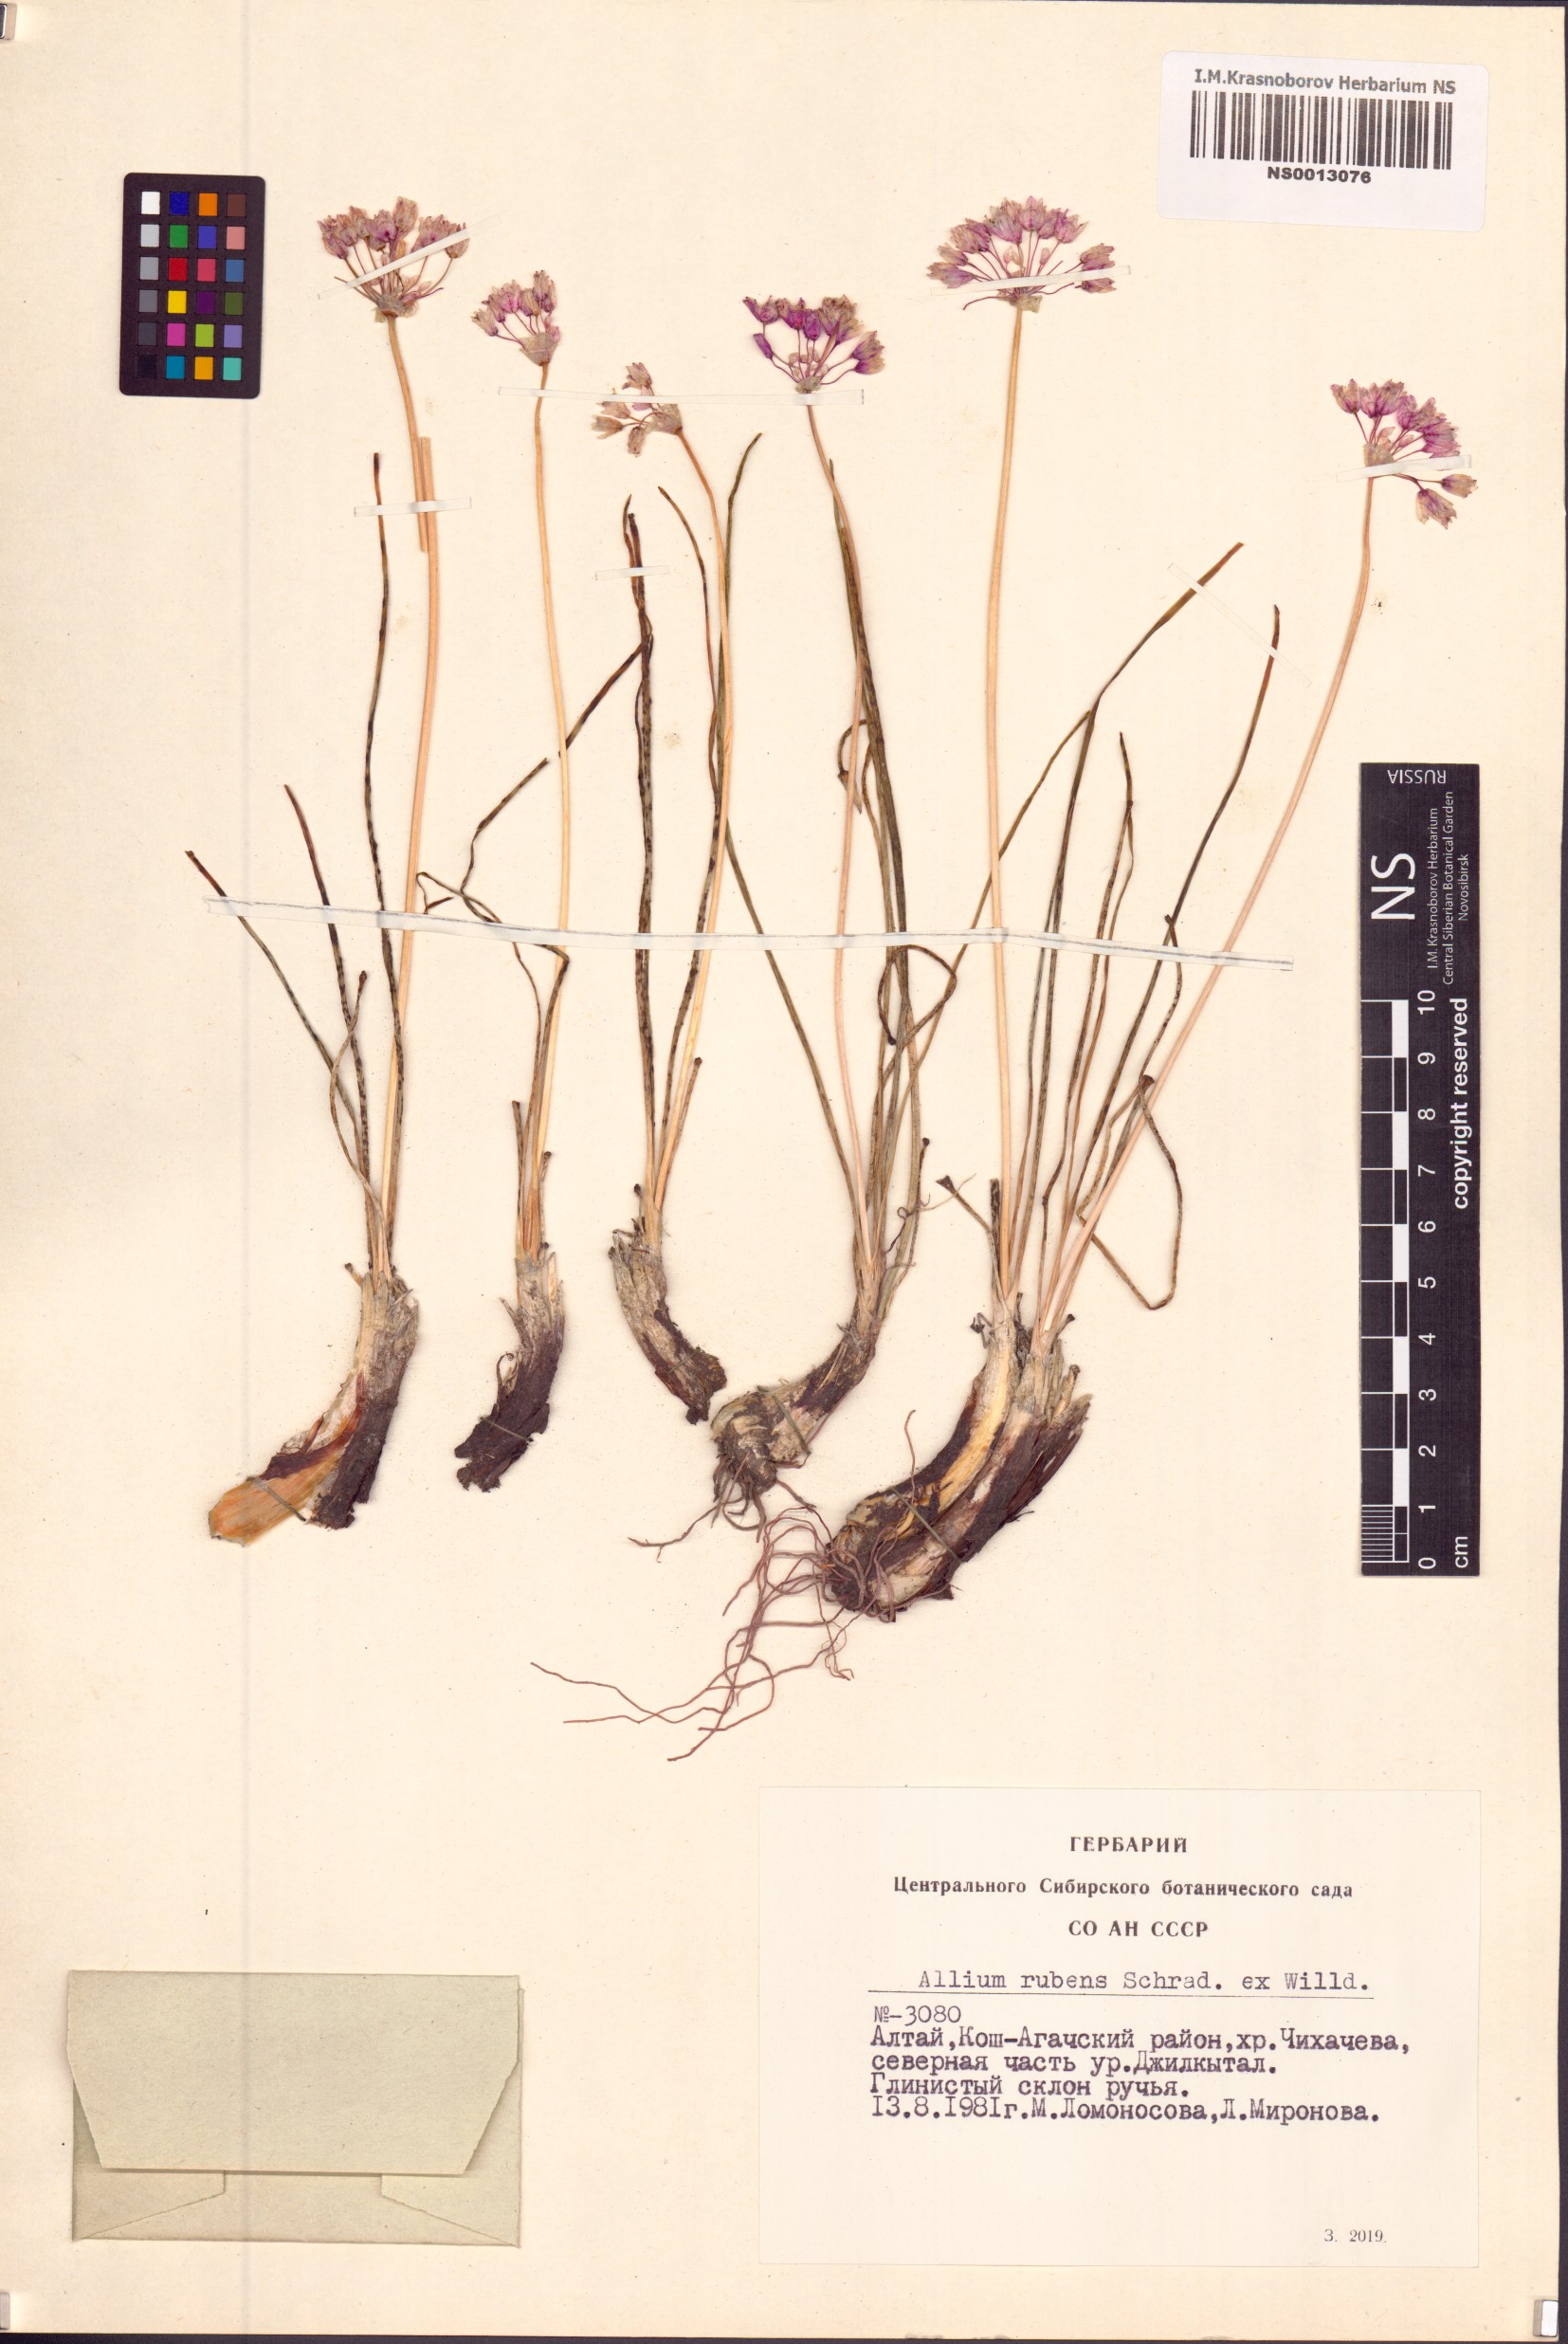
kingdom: Plantae
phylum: Tracheophyta
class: Liliopsida
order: Asparagales
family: Amaryllidaceae
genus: Allium
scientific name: Allium rubens
